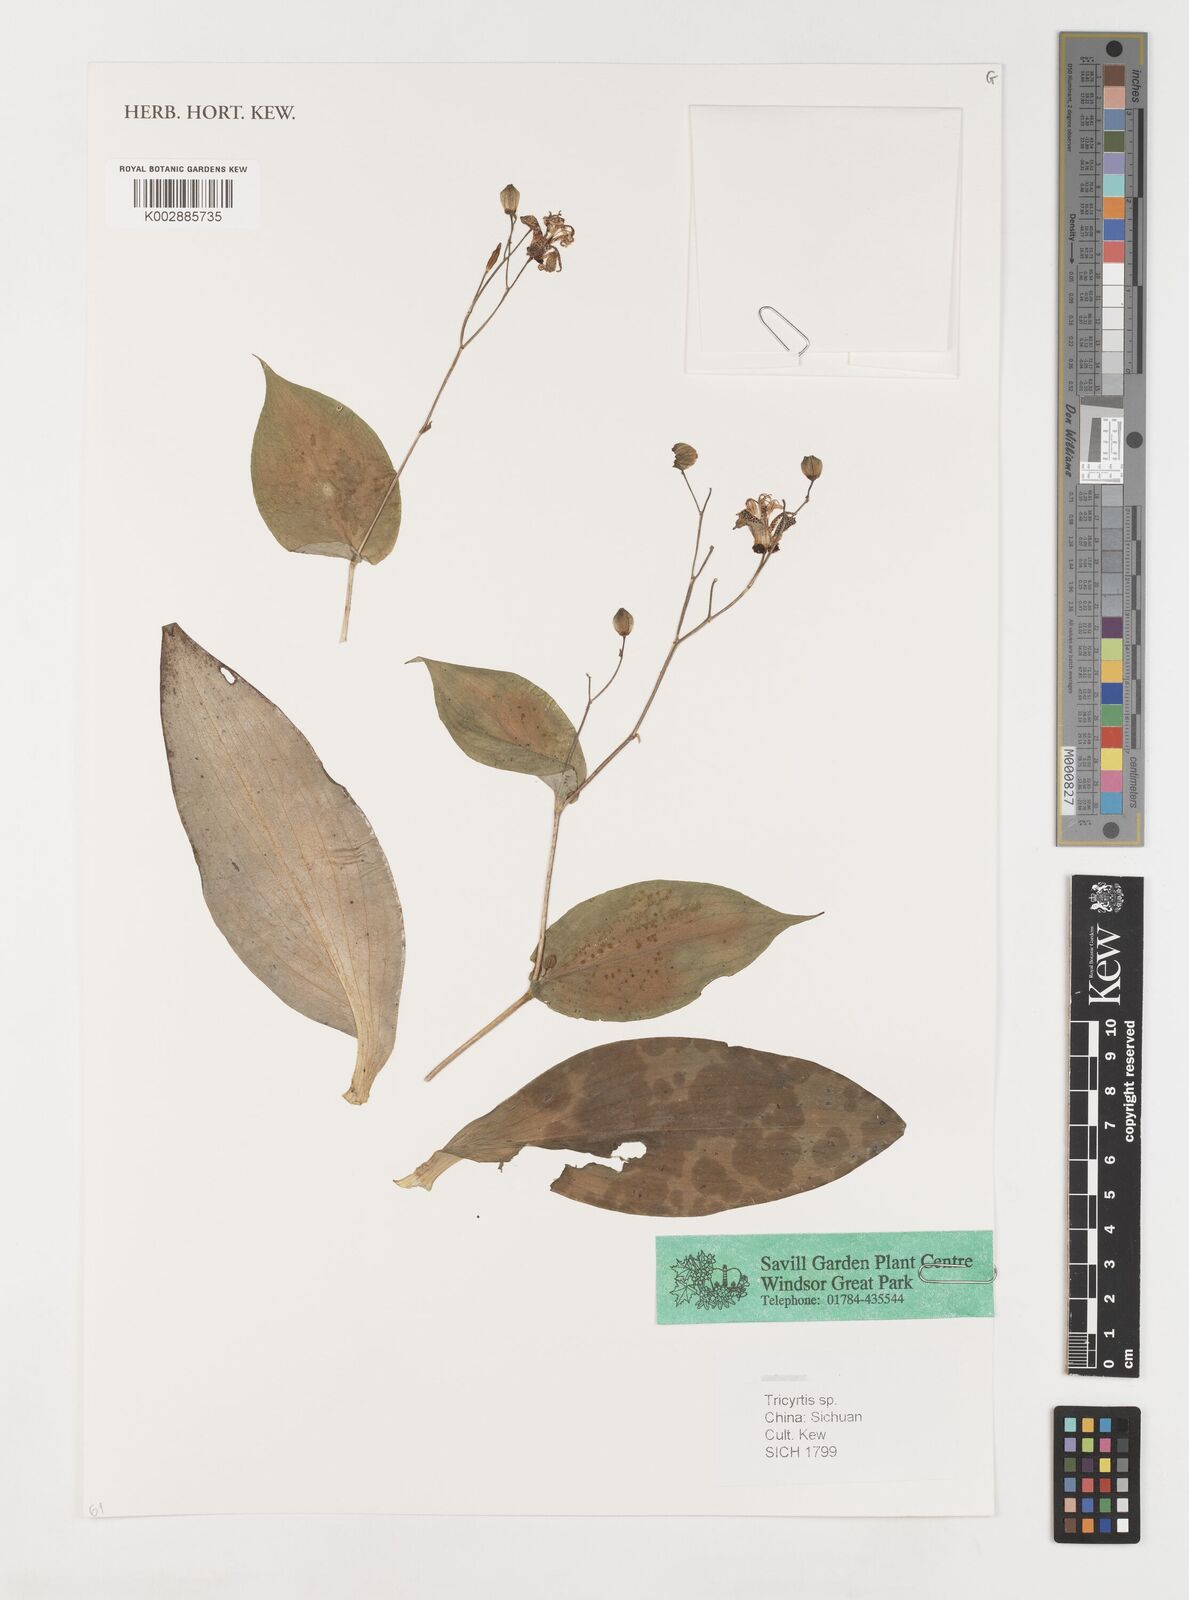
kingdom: Plantae
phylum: Tracheophyta
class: Liliopsida
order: Liliales
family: Liliaceae
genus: Tricyrtis
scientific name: Tricyrtis
